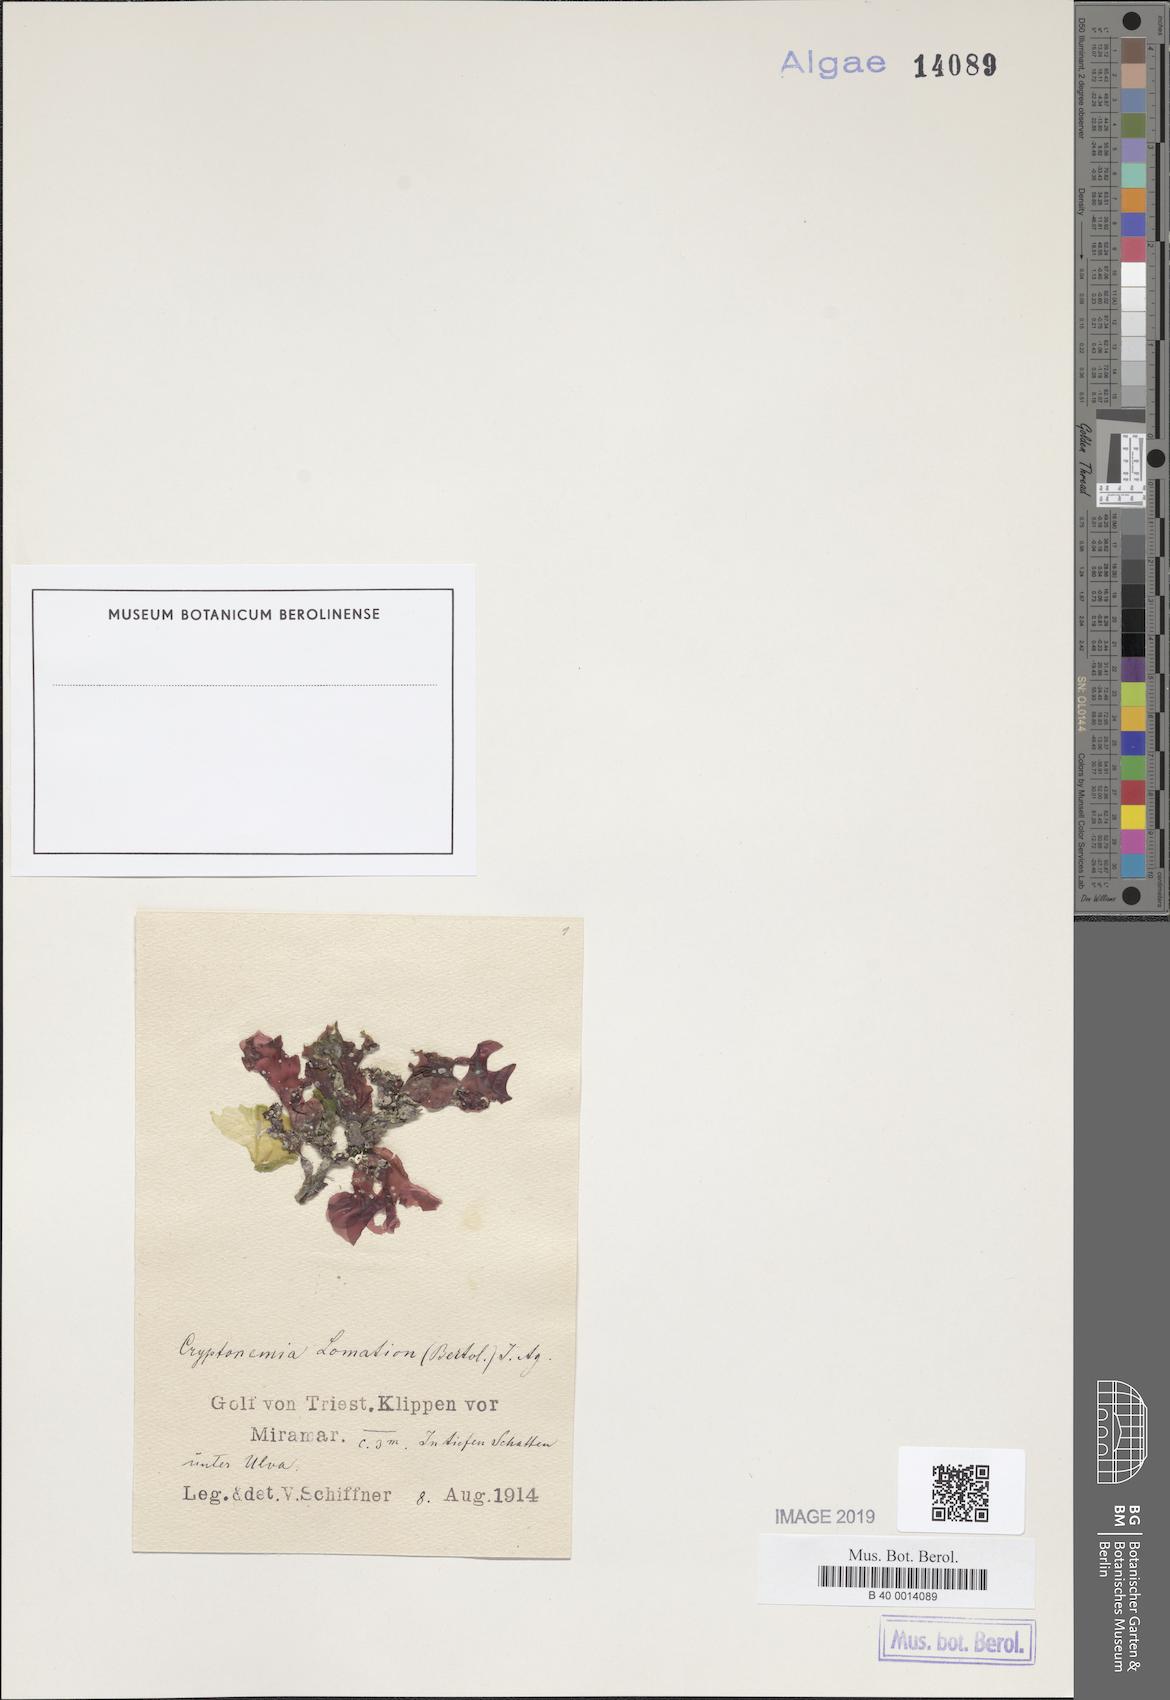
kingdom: Plantae
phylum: Rhodophyta
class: Florideophyceae
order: Halymeniales
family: Halymeniaceae
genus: Cryptonemia
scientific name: Cryptonemia lomation
